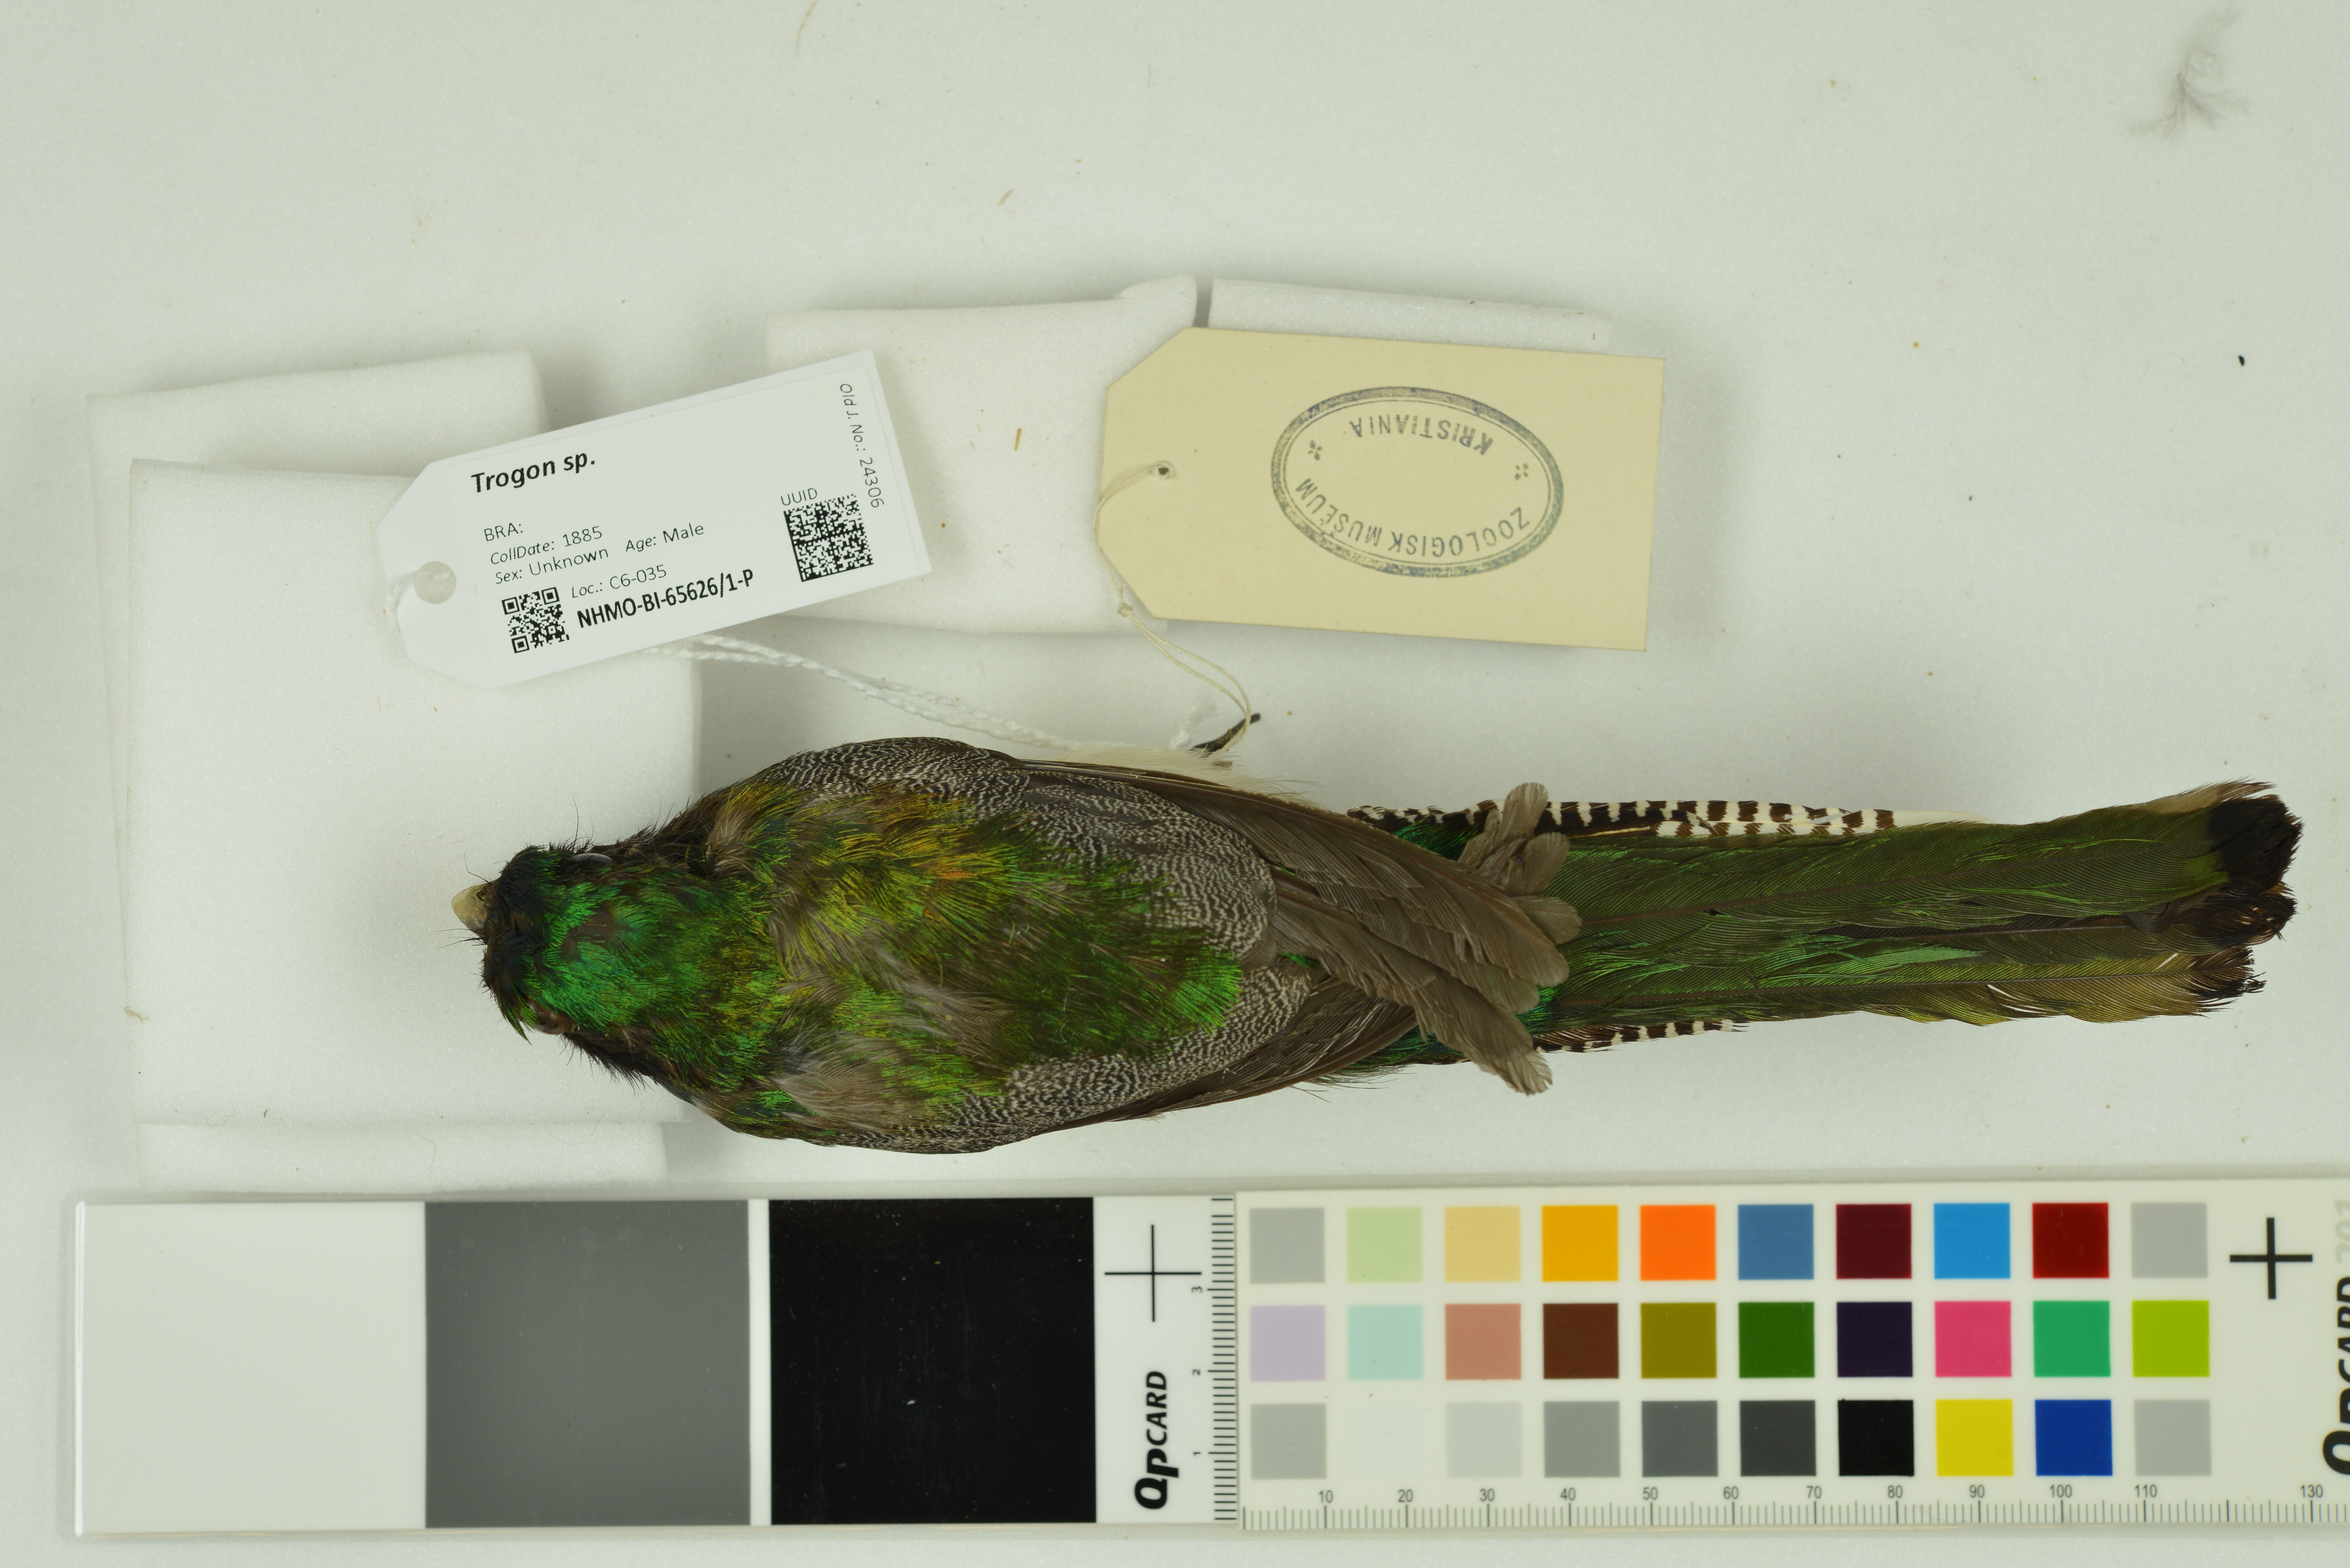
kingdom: Animalia
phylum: Chordata
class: Aves
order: Trogoniformes
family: Trogonidae
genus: Trogon
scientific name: Trogon
